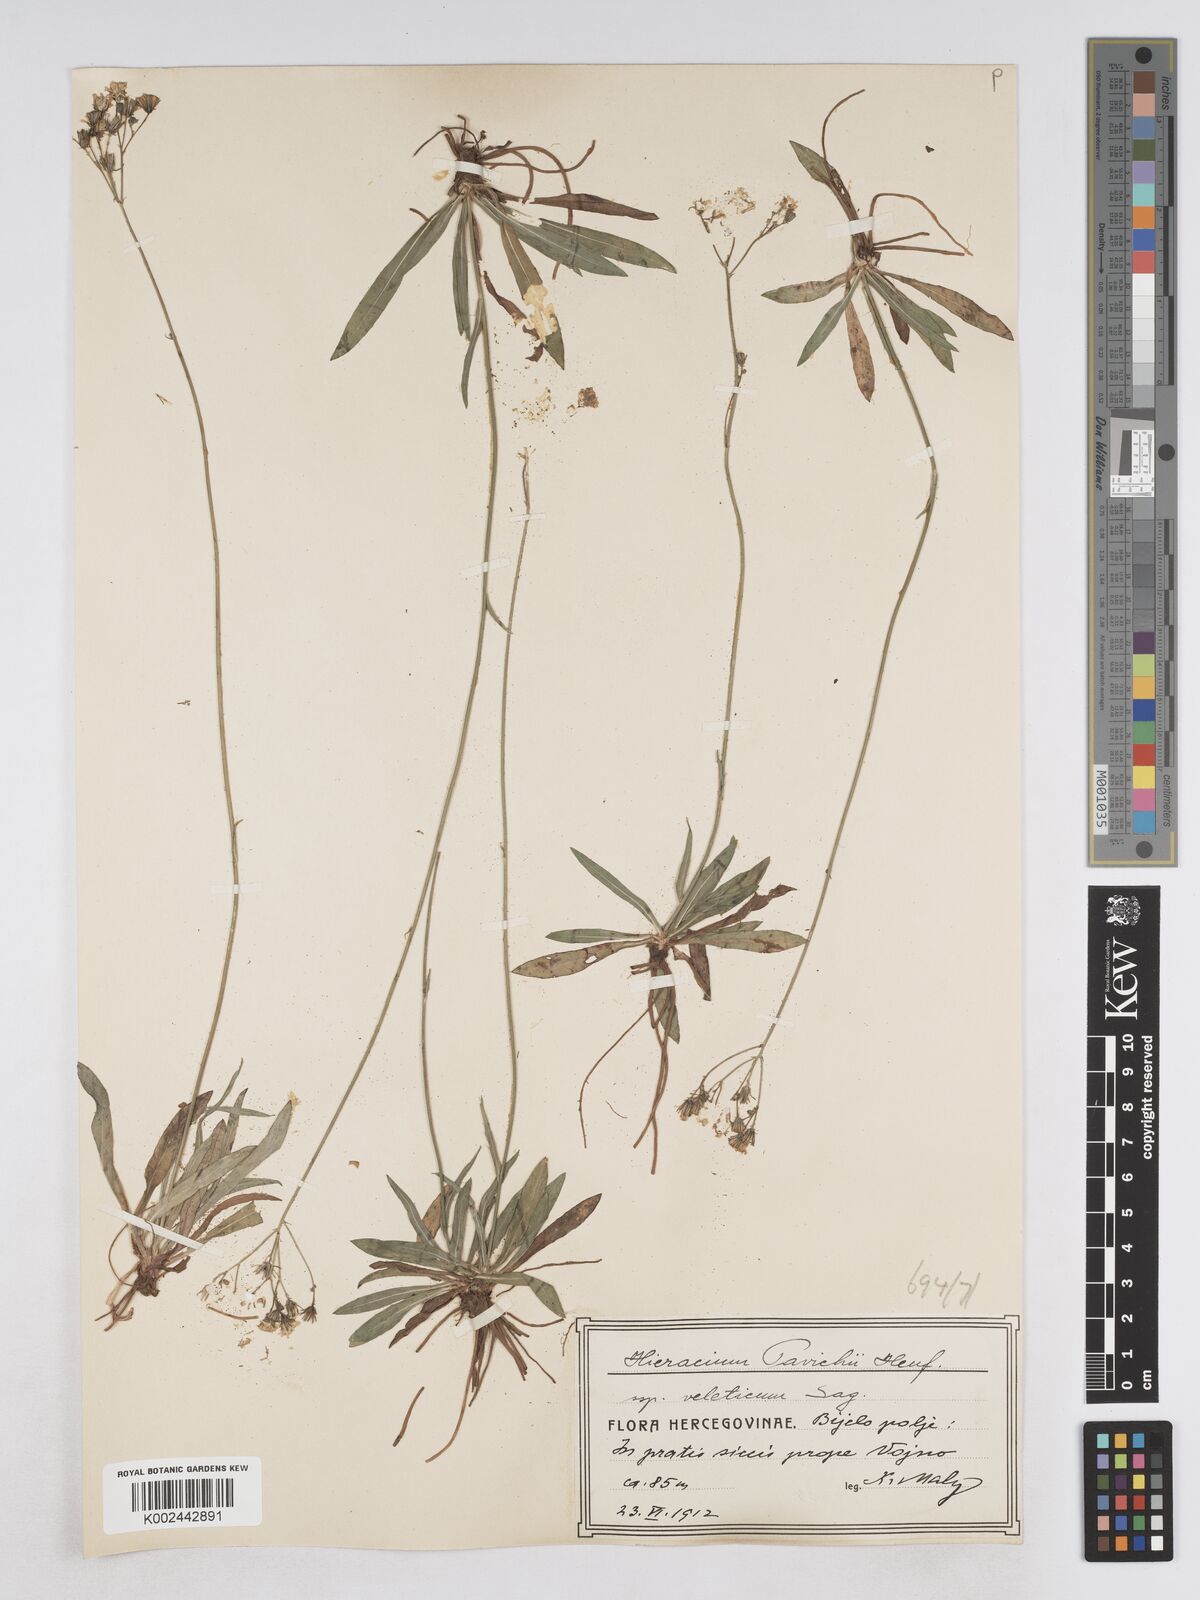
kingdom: Plantae
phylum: Tracheophyta
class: Magnoliopsida
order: Asterales
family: Asteraceae
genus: Pilosella
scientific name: Pilosella pavichii
